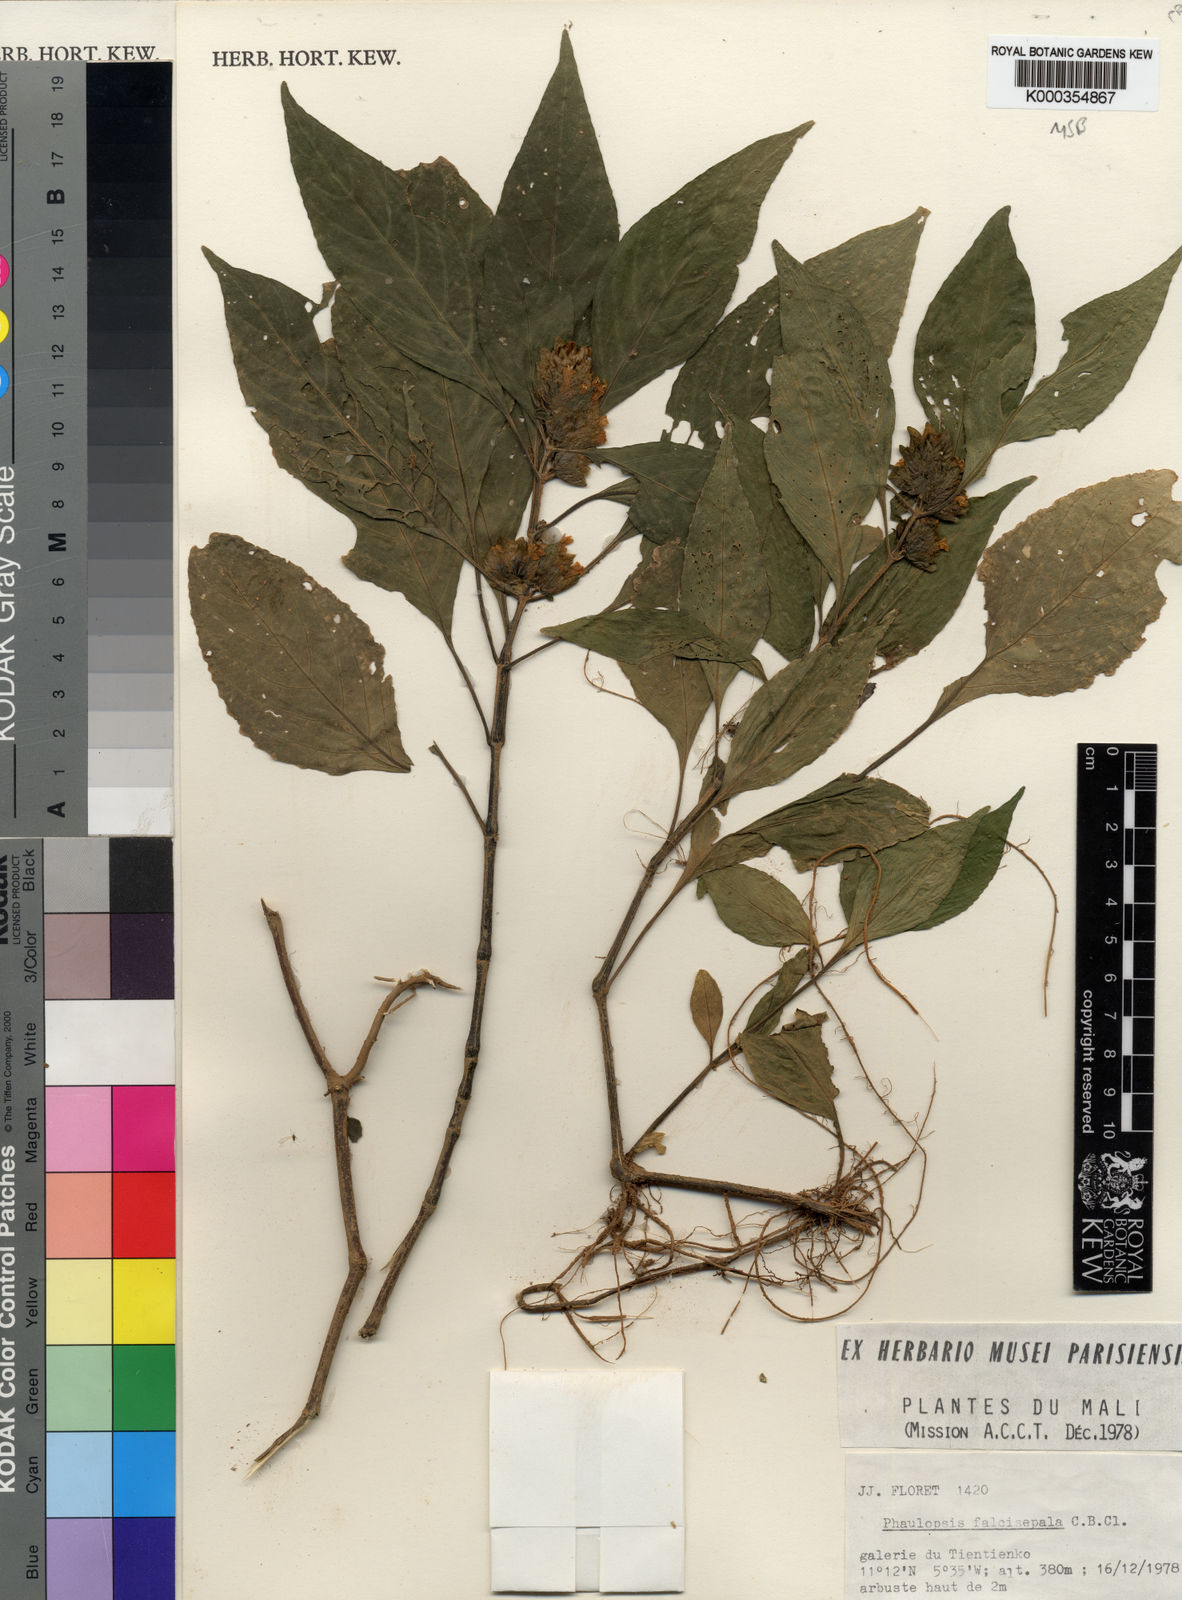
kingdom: Plantae
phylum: Tracheophyta
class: Magnoliopsida
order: Lamiales
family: Acanthaceae
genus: Phaulopsis
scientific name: Phaulopsis ciliata
